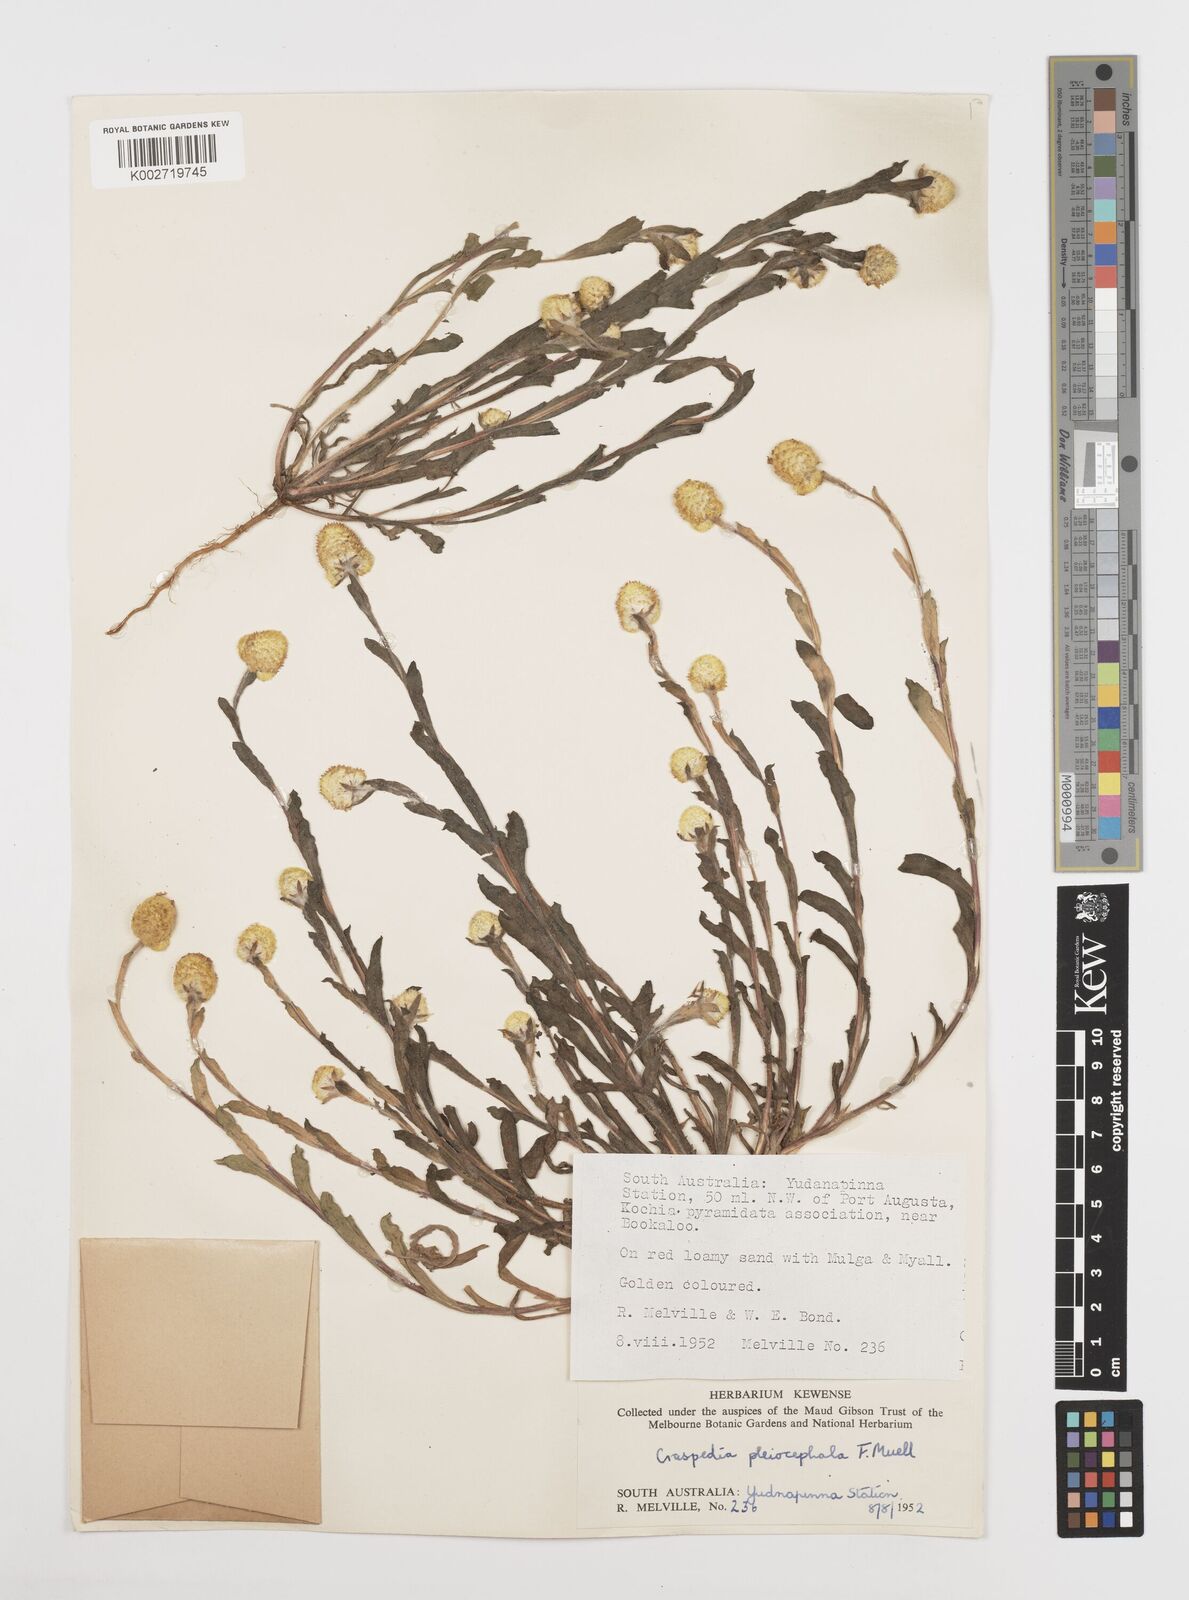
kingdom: Plantae
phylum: Tracheophyta
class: Magnoliopsida
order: Asterales
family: Asteraceae
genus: Pycnosorus
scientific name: Pycnosorus pleiocephalus
